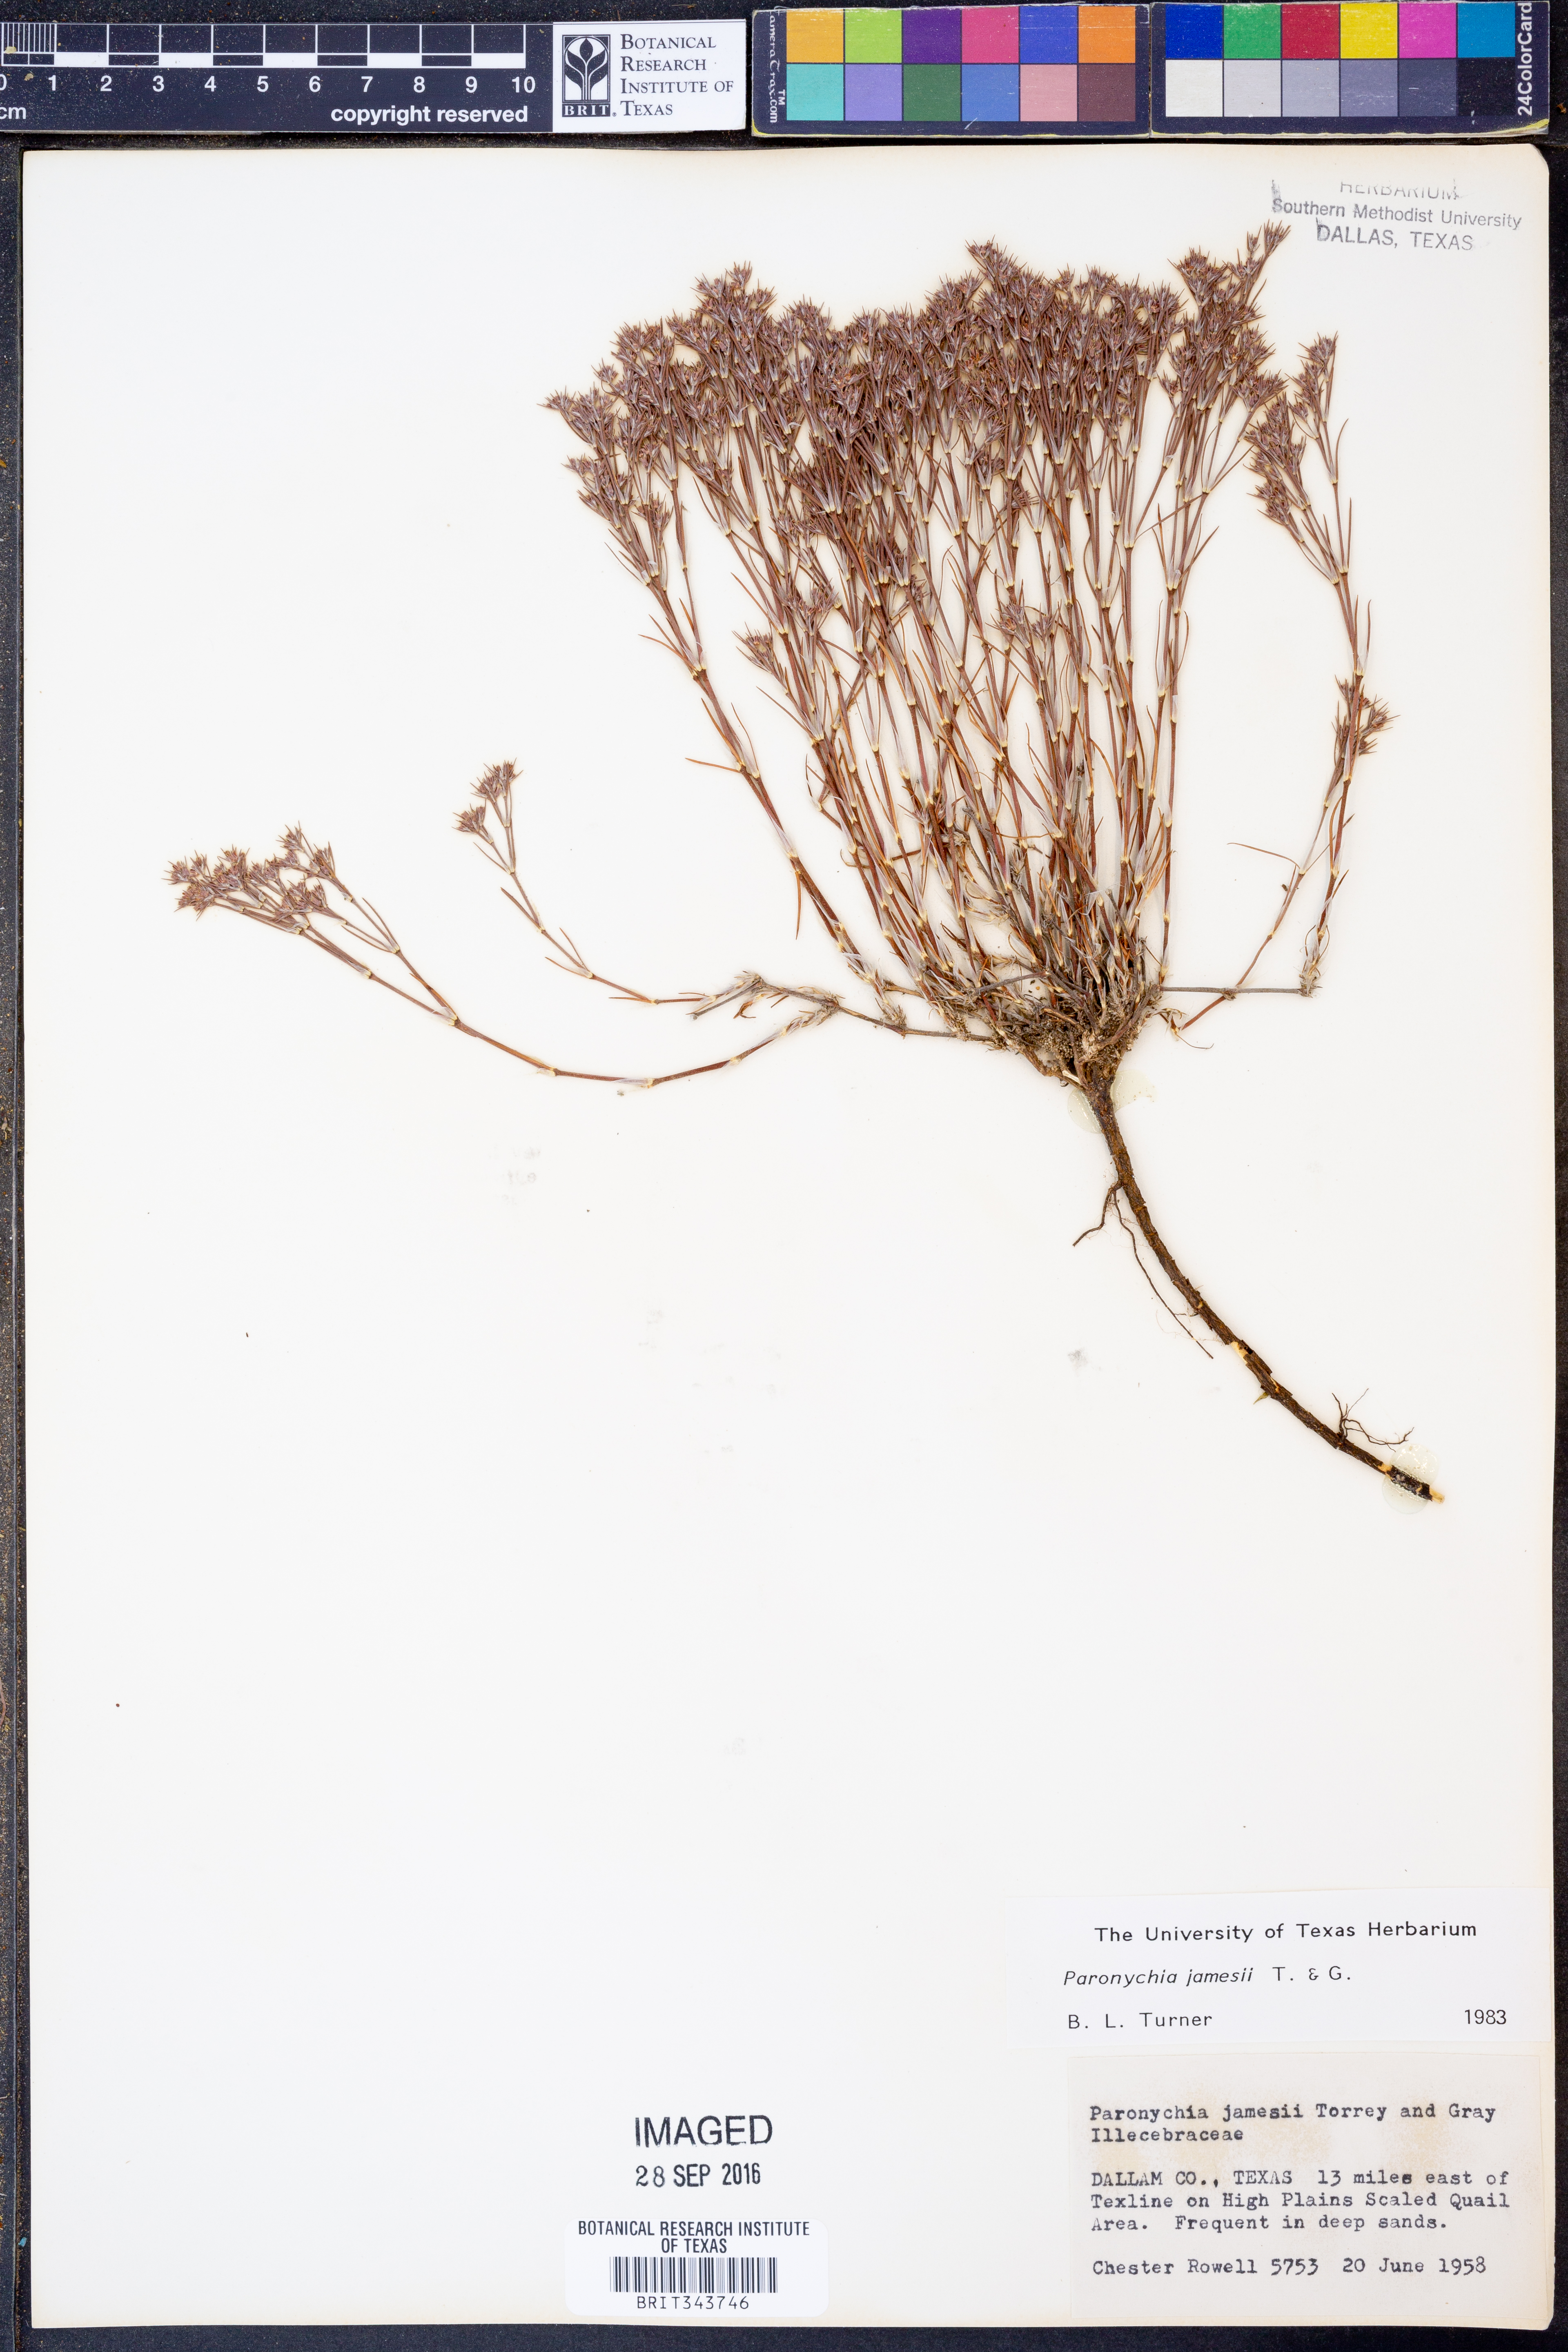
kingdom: Plantae
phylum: Tracheophyta
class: Magnoliopsida
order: Caryophyllales
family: Caryophyllaceae
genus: Paronychia
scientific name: Paronychia jamesii
